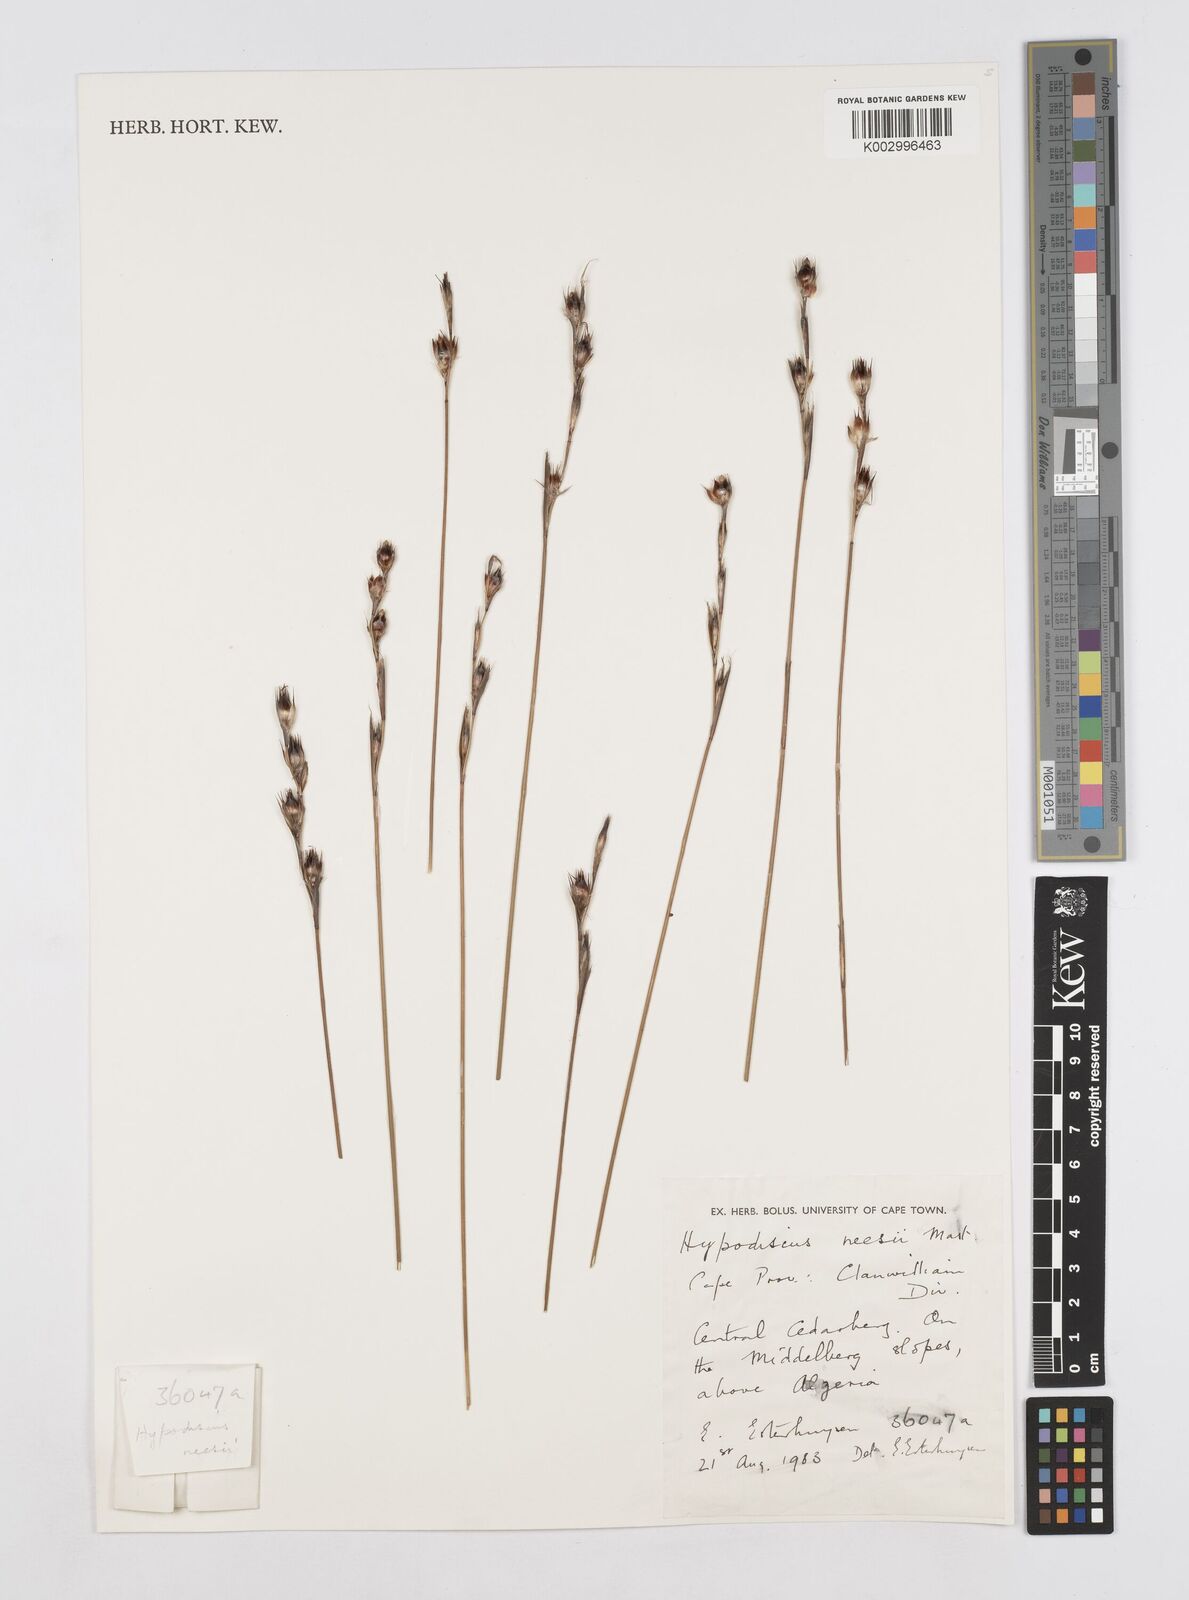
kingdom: Plantae
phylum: Tracheophyta
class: Liliopsida
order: Poales
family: Restionaceae
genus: Hypodiscus
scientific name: Hypodiscus neesii
